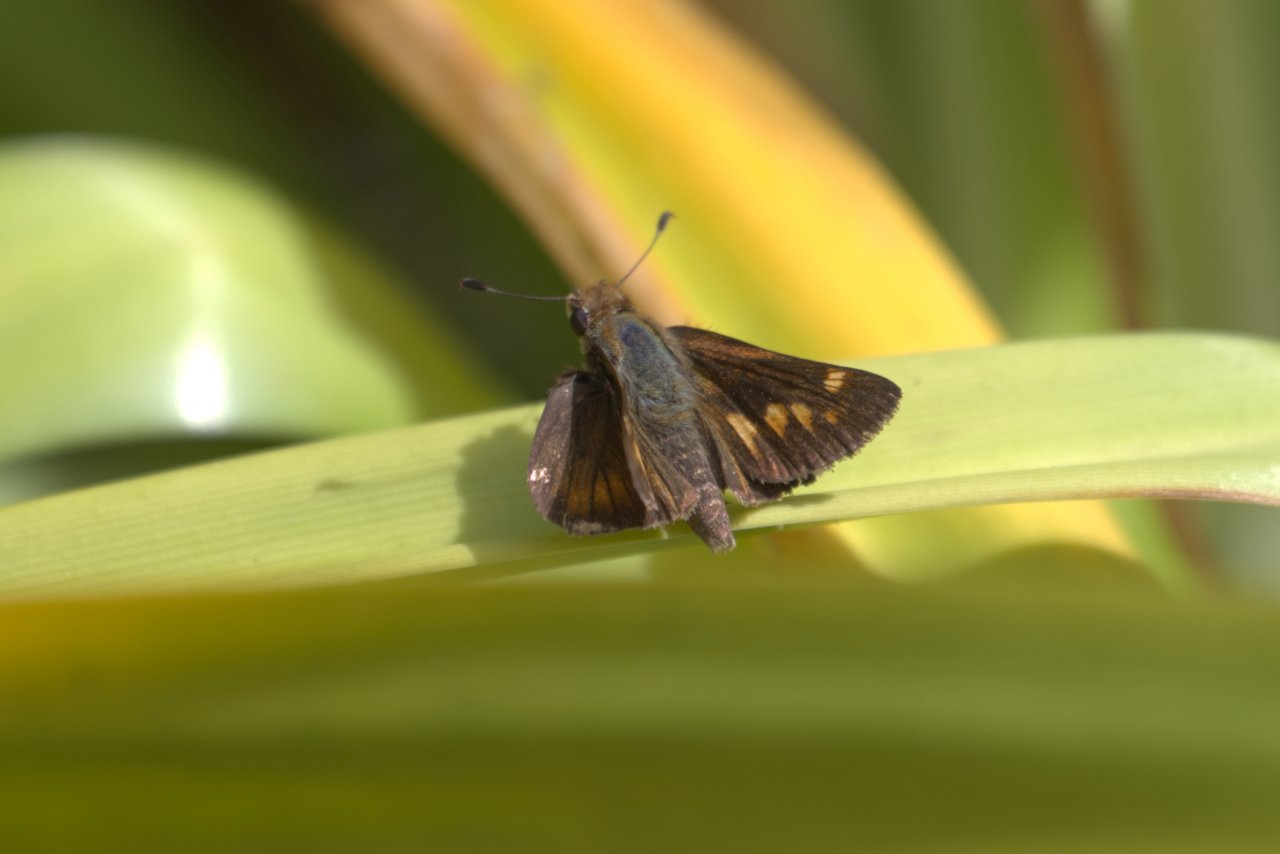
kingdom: Animalia
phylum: Arthropoda
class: Insecta
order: Lepidoptera
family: Hesperiidae
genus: Lon
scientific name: Lon melane
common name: Umber Skipper
